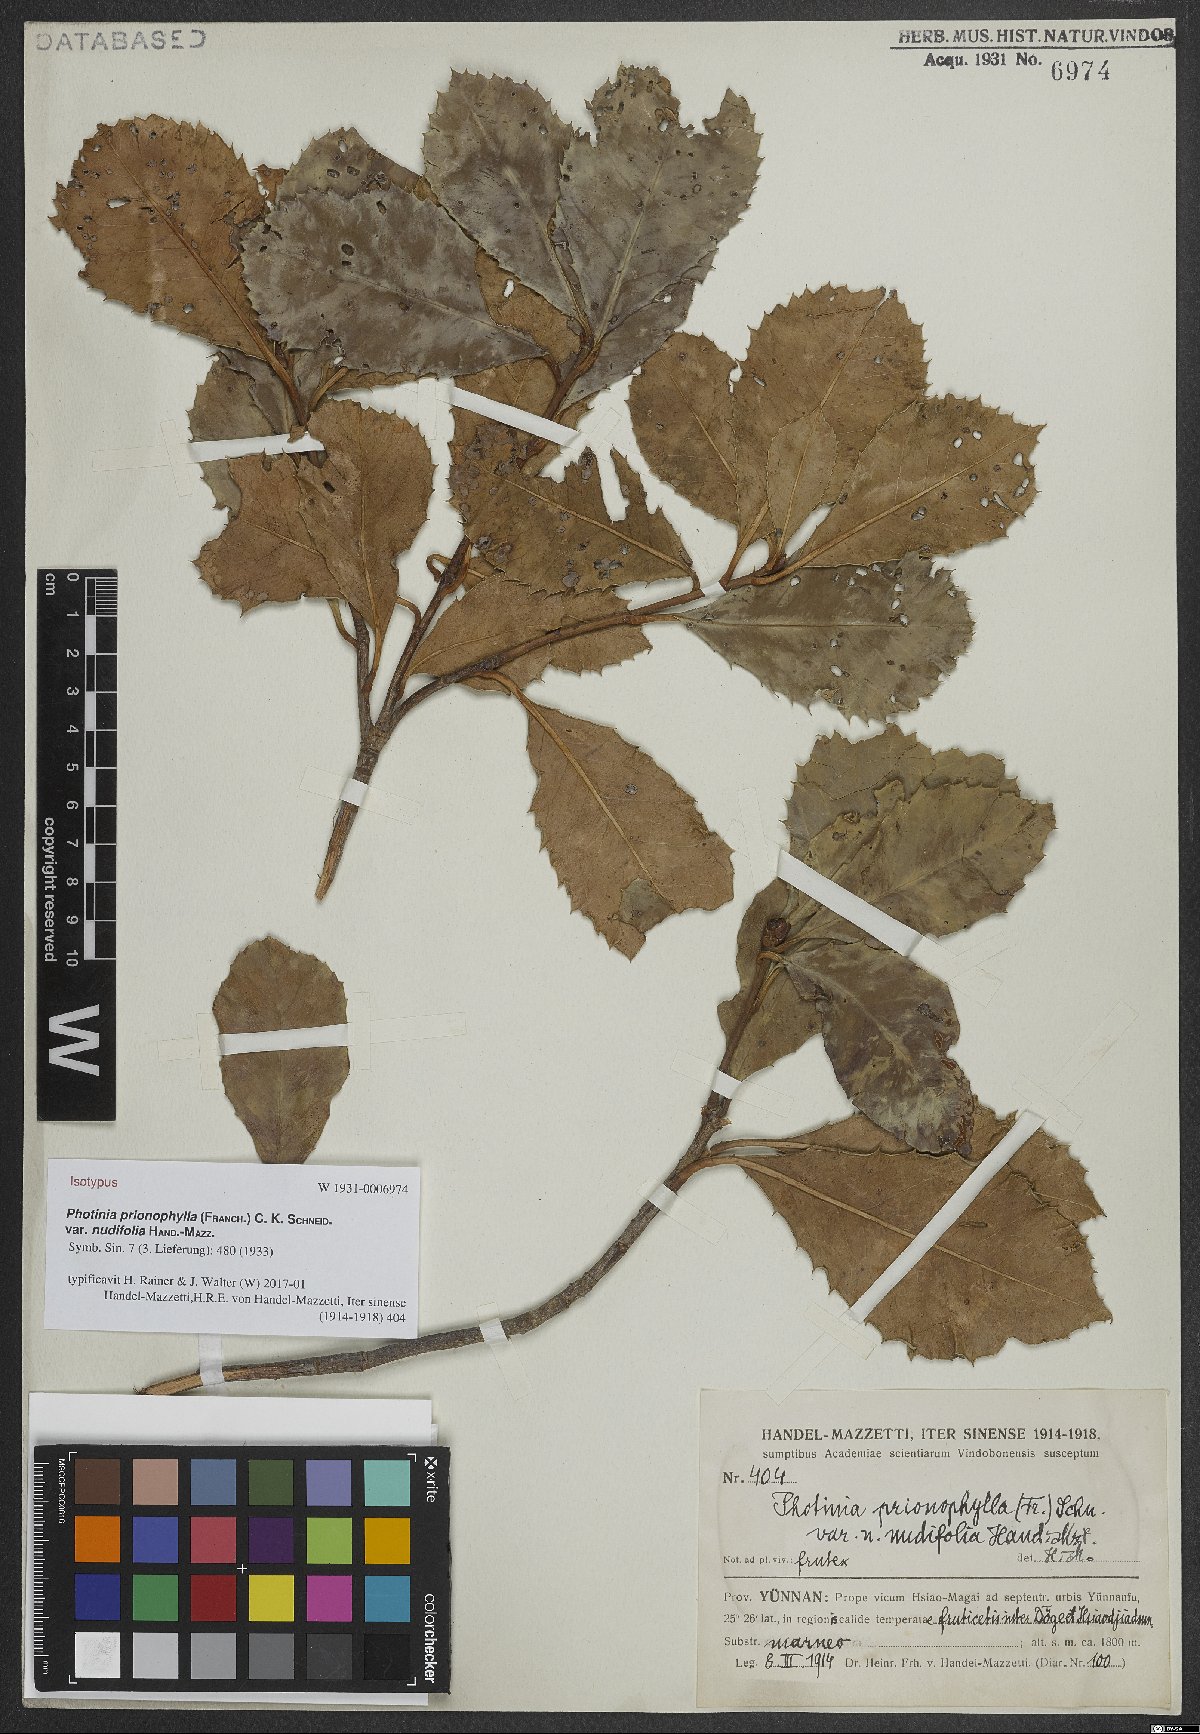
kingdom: Plantae
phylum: Tracheophyta
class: Magnoliopsida
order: Rosales
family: Rosaceae
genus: Photinia
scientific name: Photinia prionophylla
